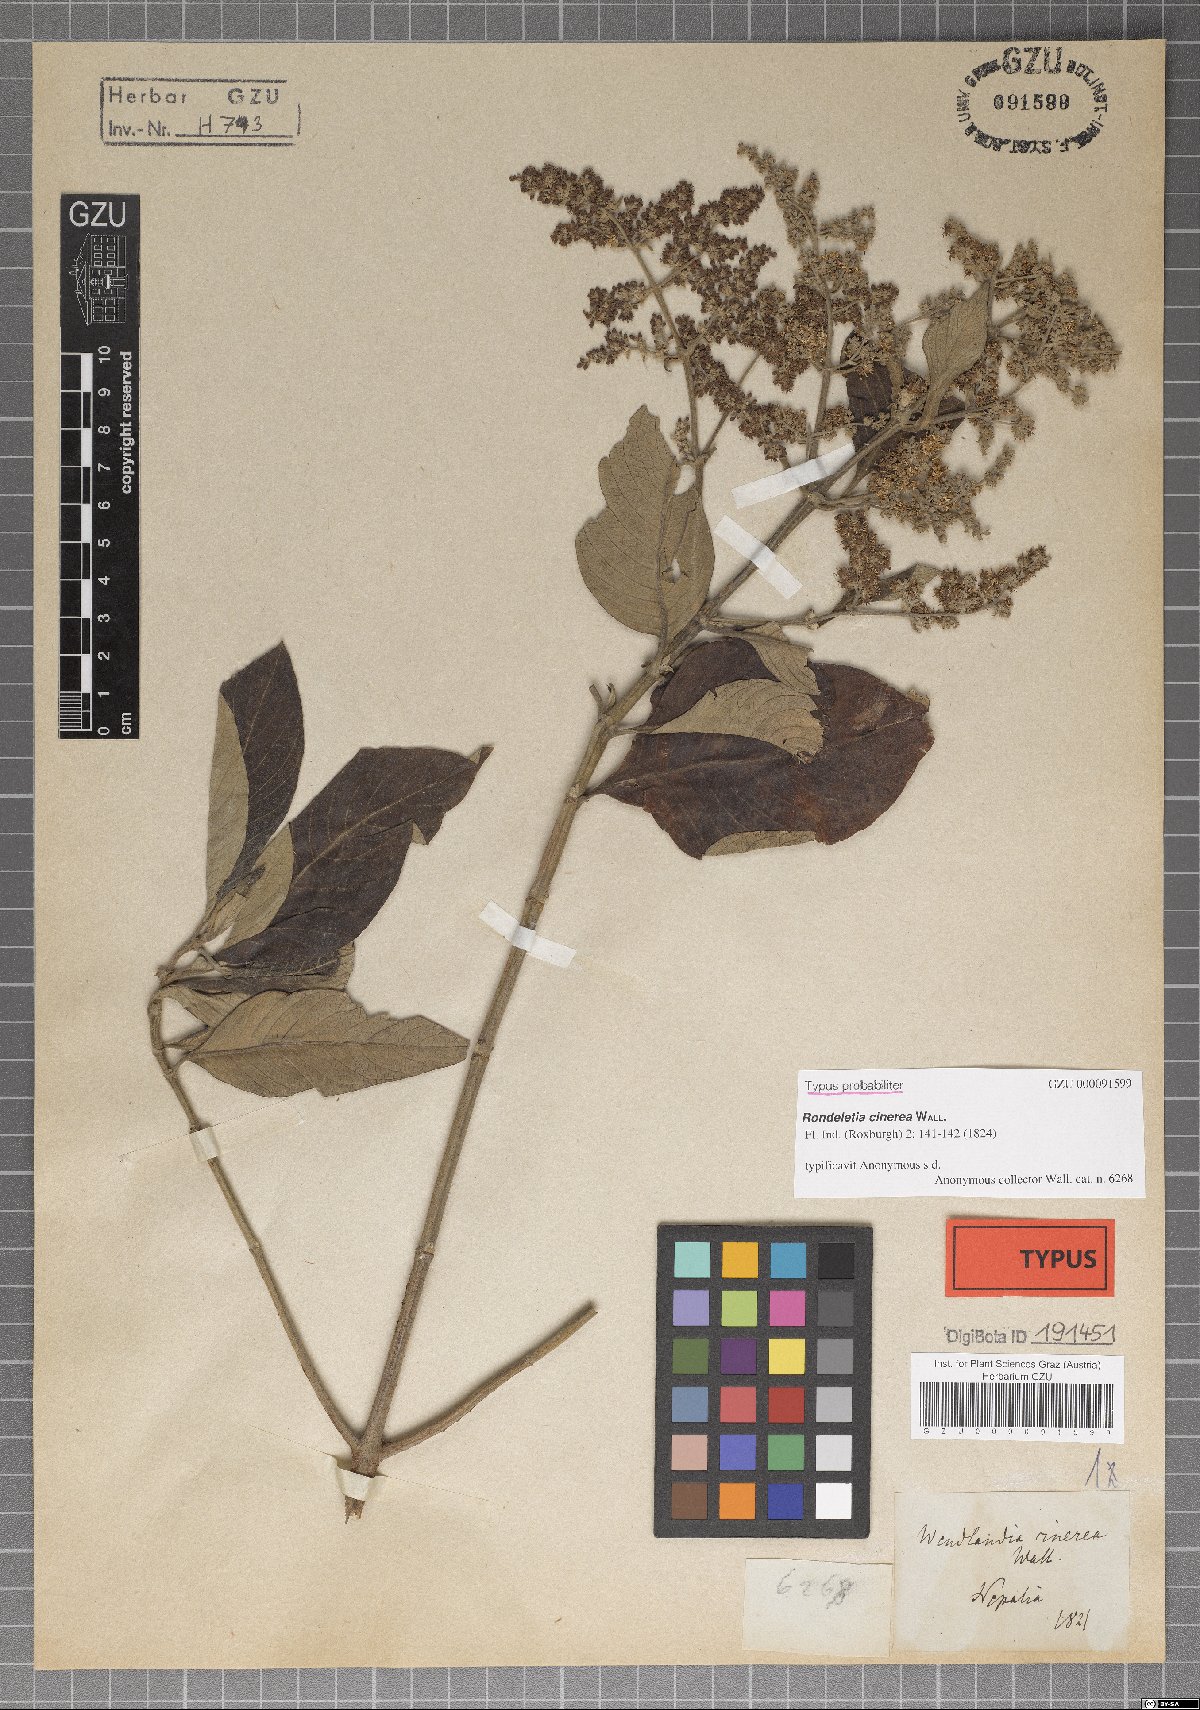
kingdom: Plantae
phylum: Tracheophyta
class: Magnoliopsida
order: Gentianales
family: Rubiaceae
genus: Wendlandia
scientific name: Wendlandia heynei
